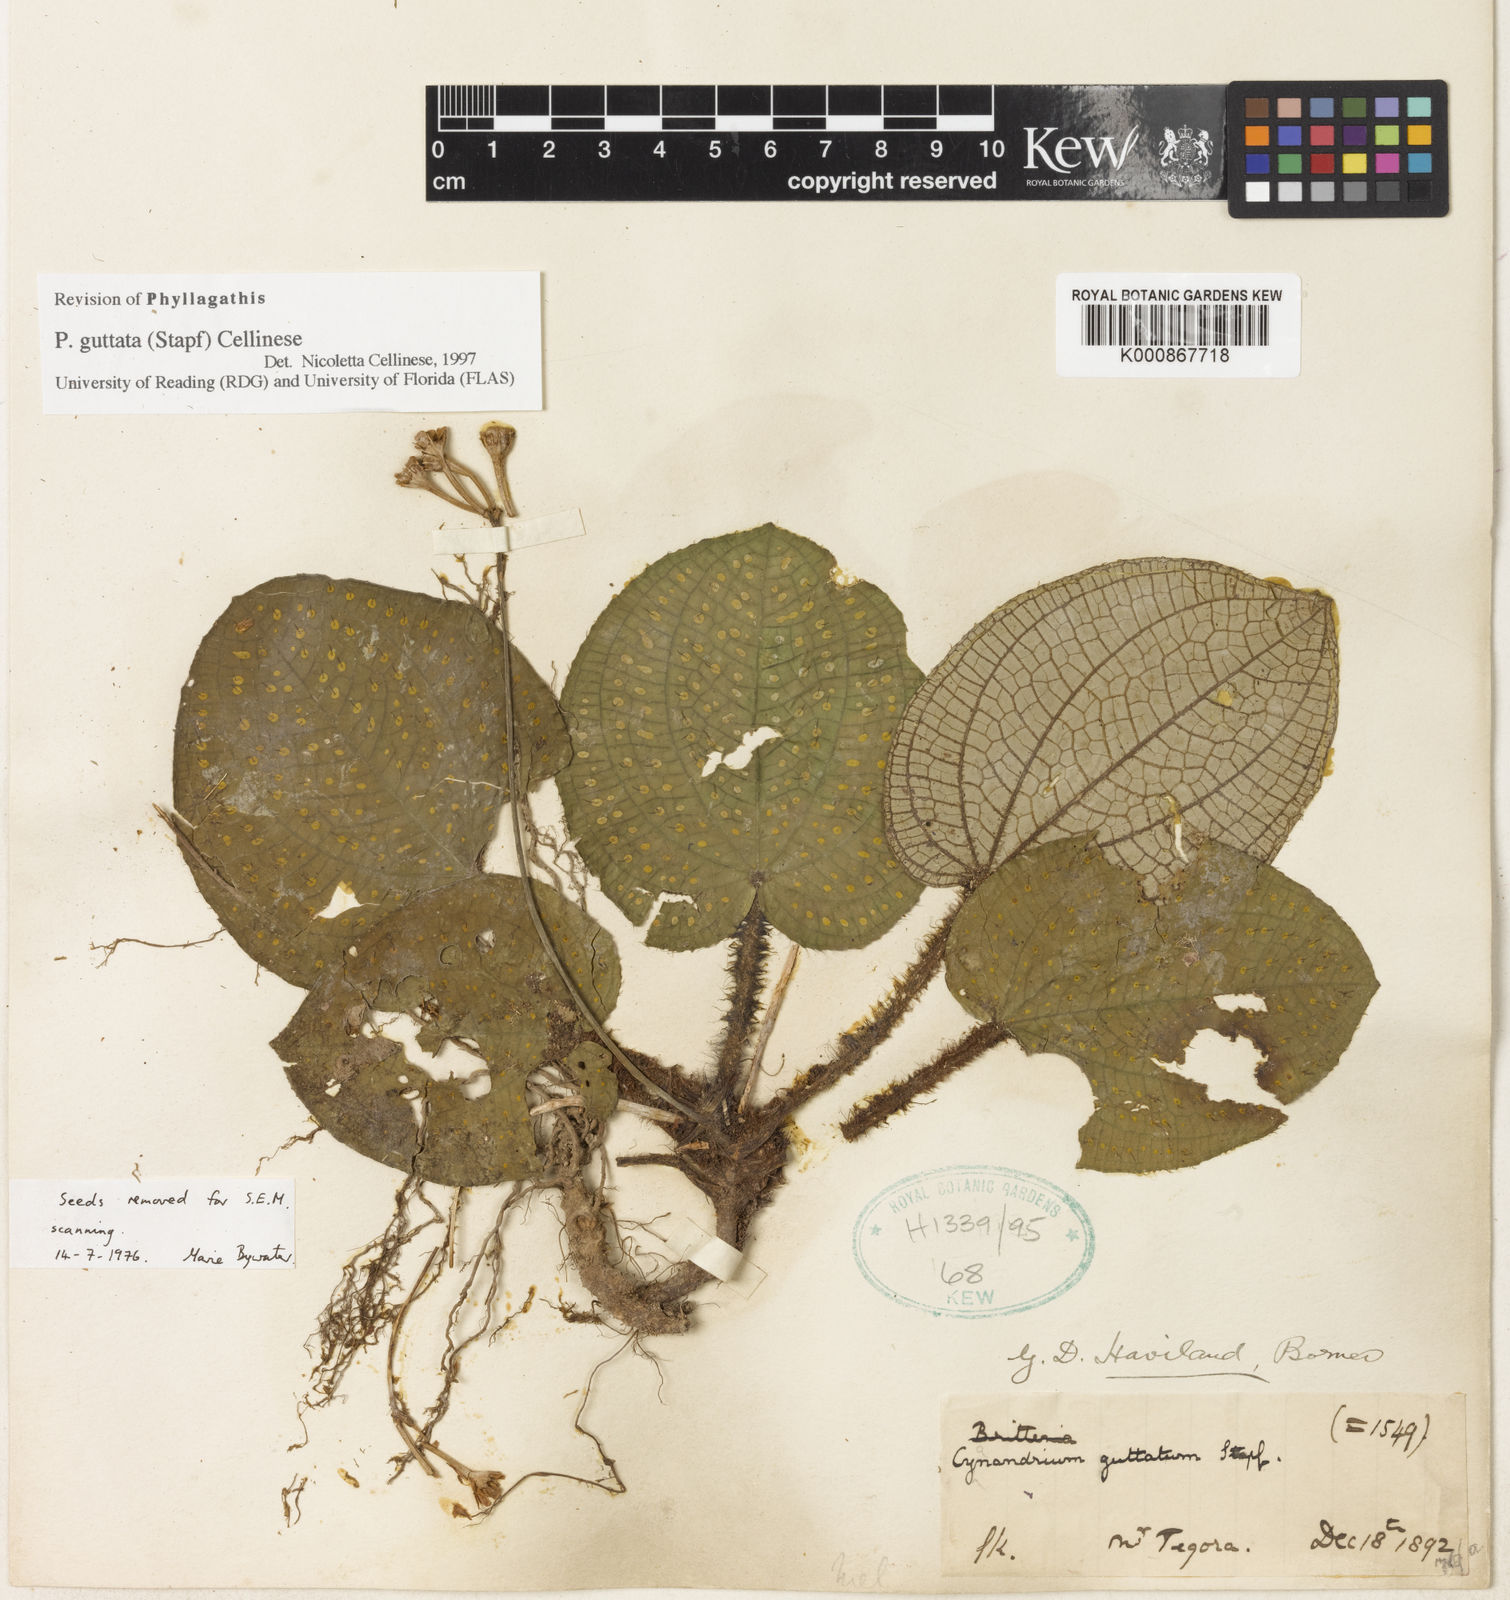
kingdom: Plantae
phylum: Tracheophyta
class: Magnoliopsida
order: Myrtales
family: Melastomataceae
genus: Cyanandrium
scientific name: Cyanandrium guttatum
